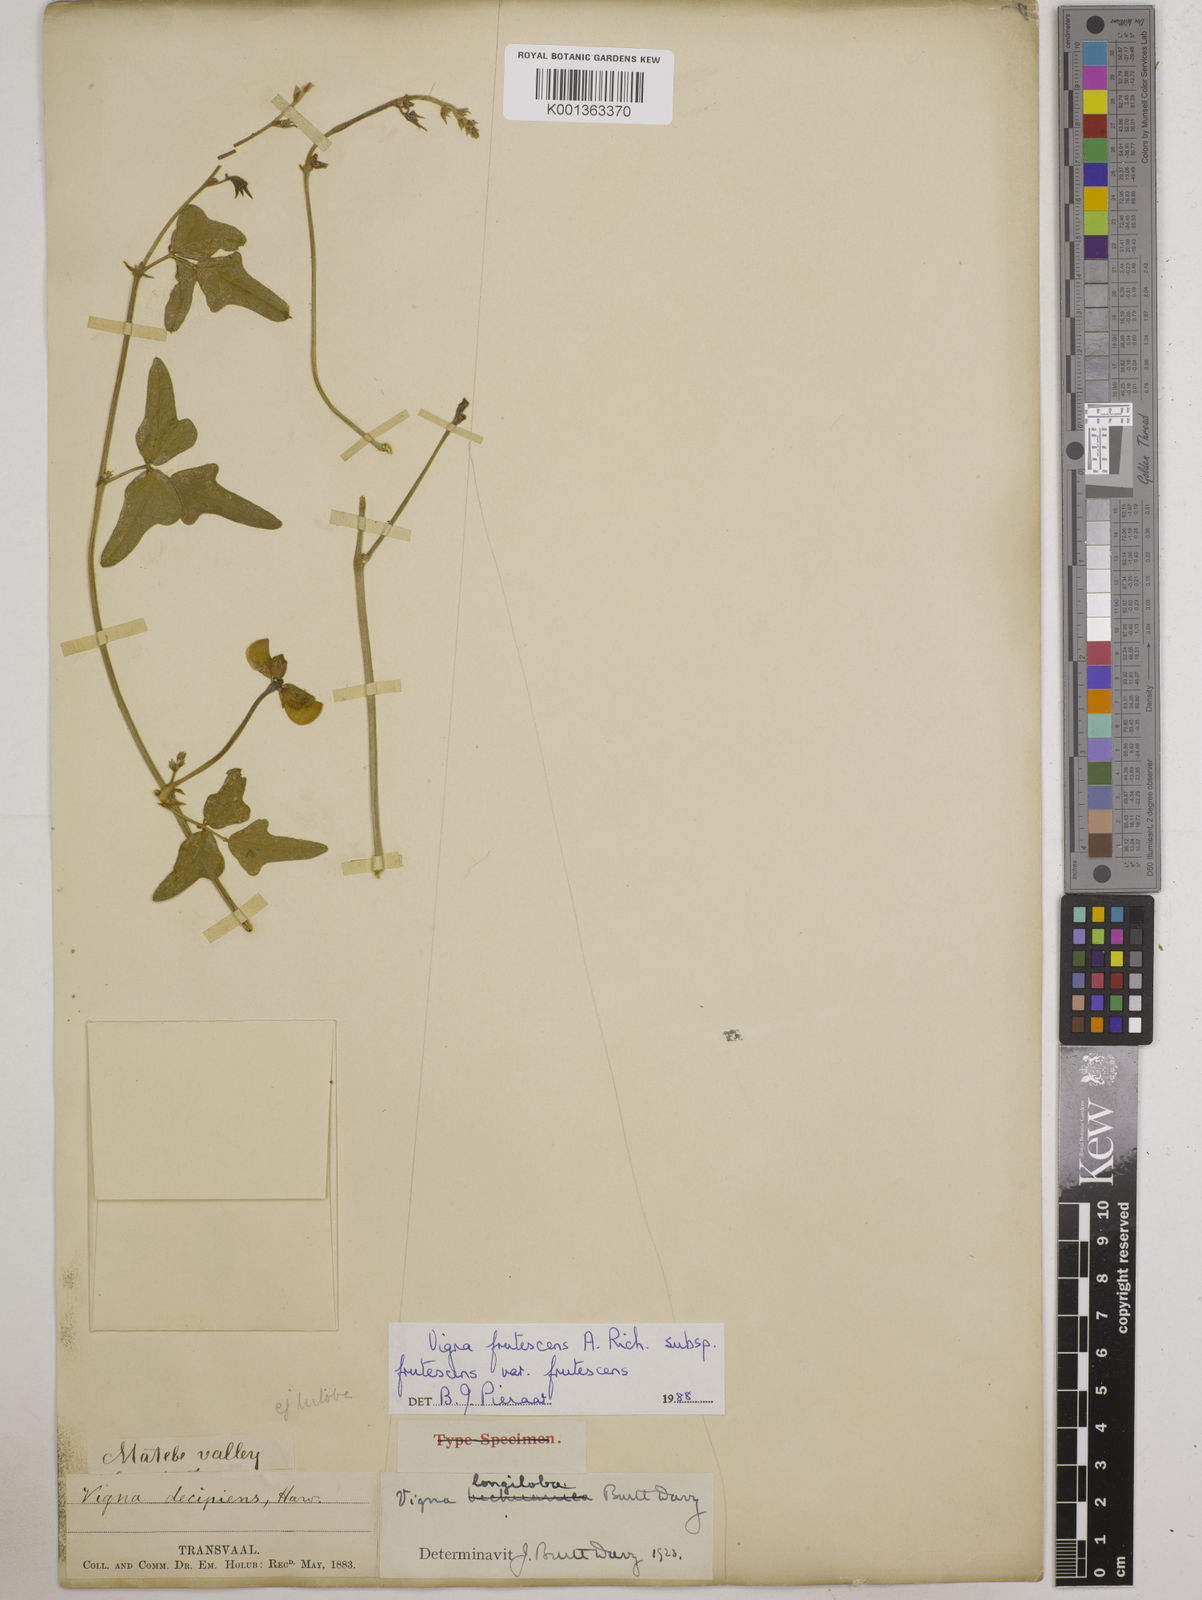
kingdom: Plantae
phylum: Tracheophyta
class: Magnoliopsida
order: Fabales
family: Fabaceae
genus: Vigna
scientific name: Vigna frutescens
